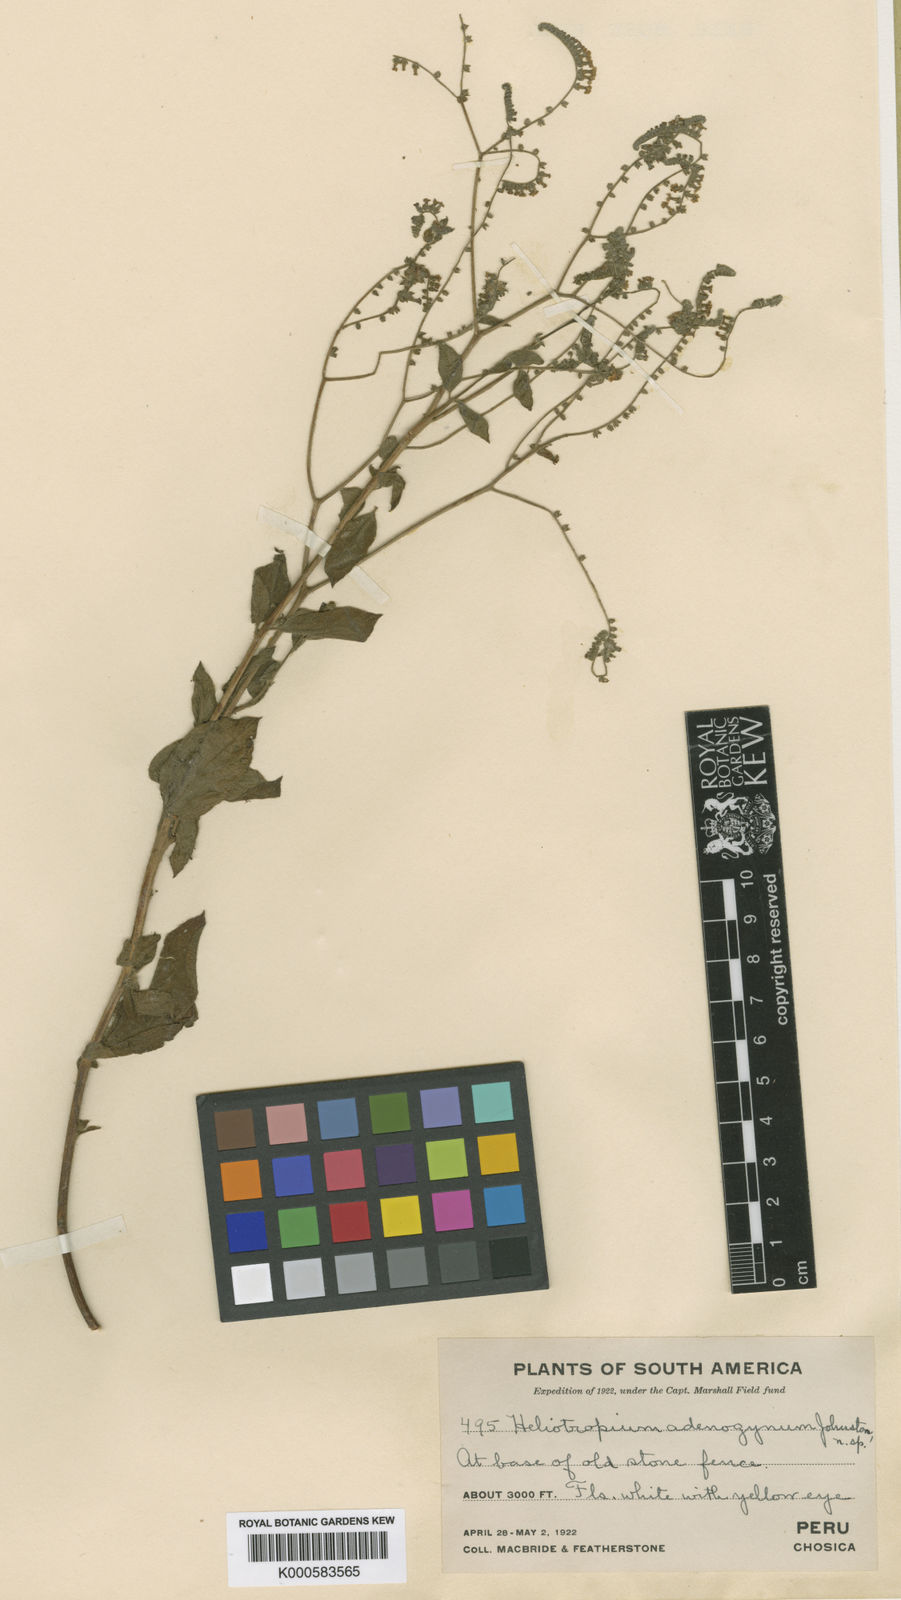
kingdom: Plantae
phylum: Tracheophyta
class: Magnoliopsida
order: Boraginales
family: Heliotropiaceae
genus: Heliotropium
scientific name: Heliotropium adenogynum
